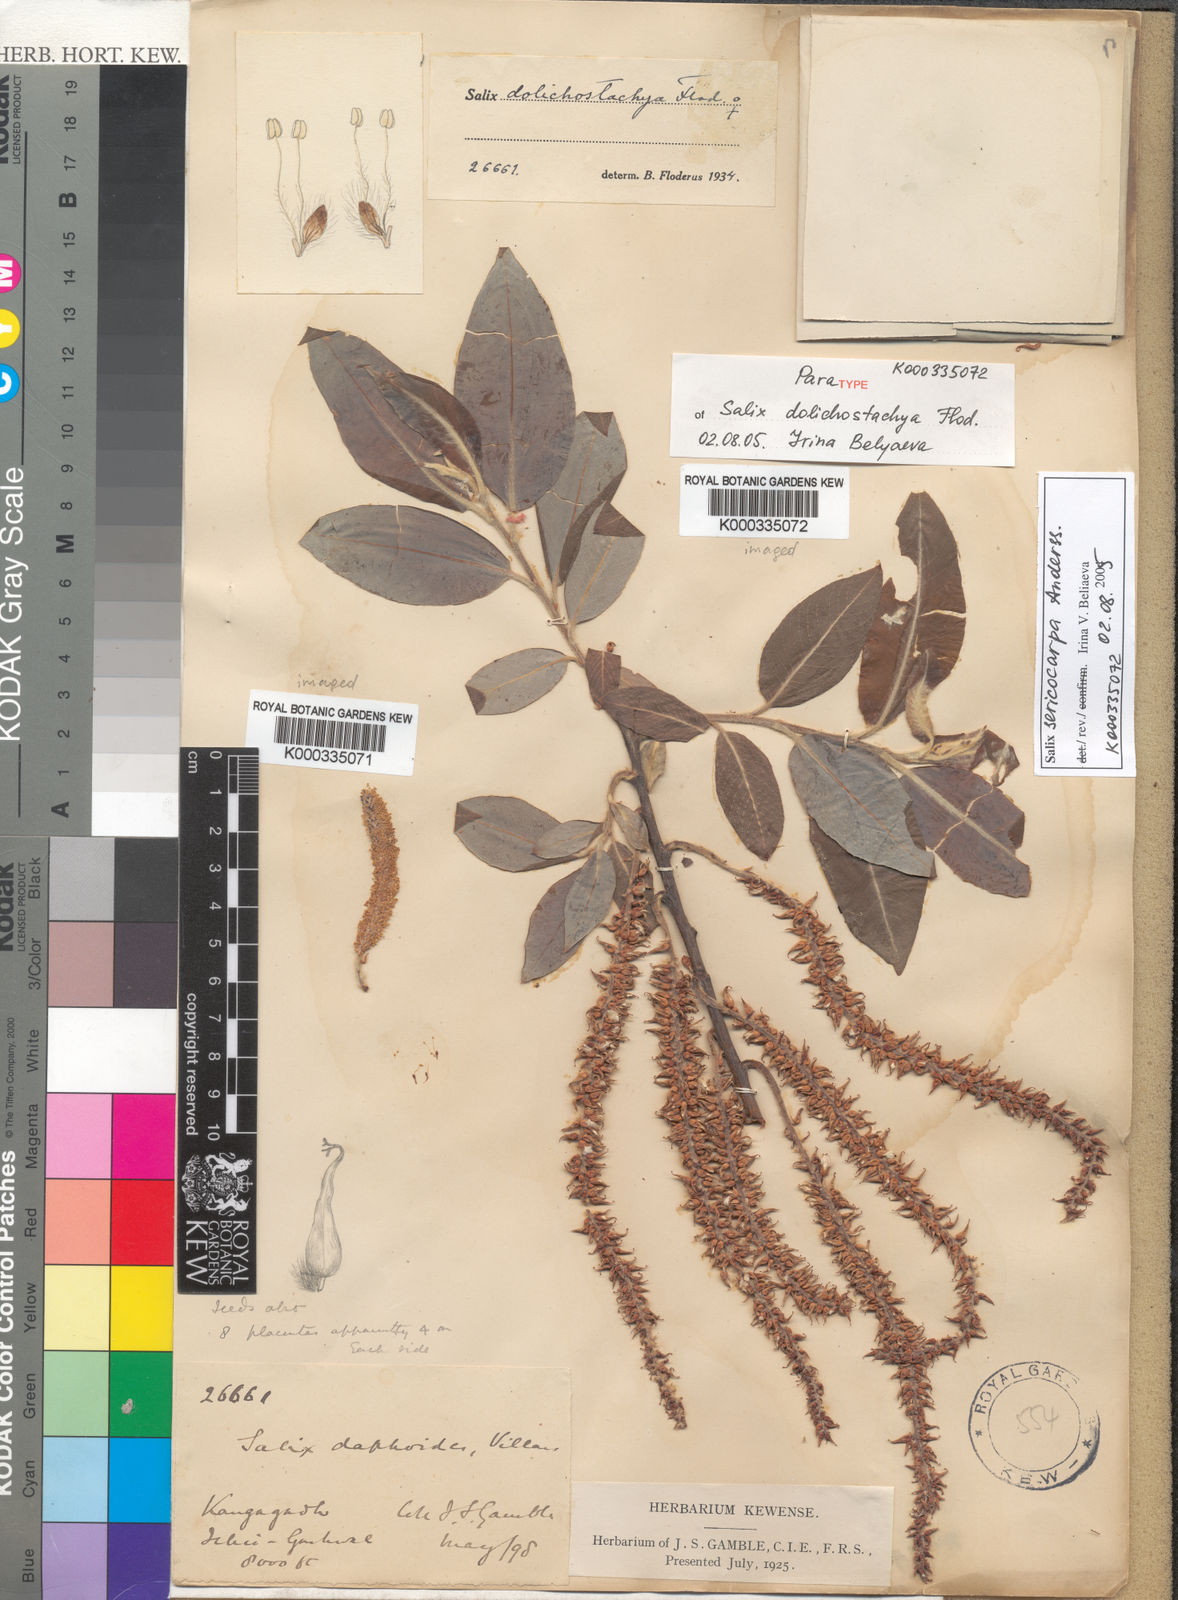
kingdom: Plantae
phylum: Tracheophyta
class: Magnoliopsida
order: Malpighiales
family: Salicaceae
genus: Salix
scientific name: Salix dolichostachya
